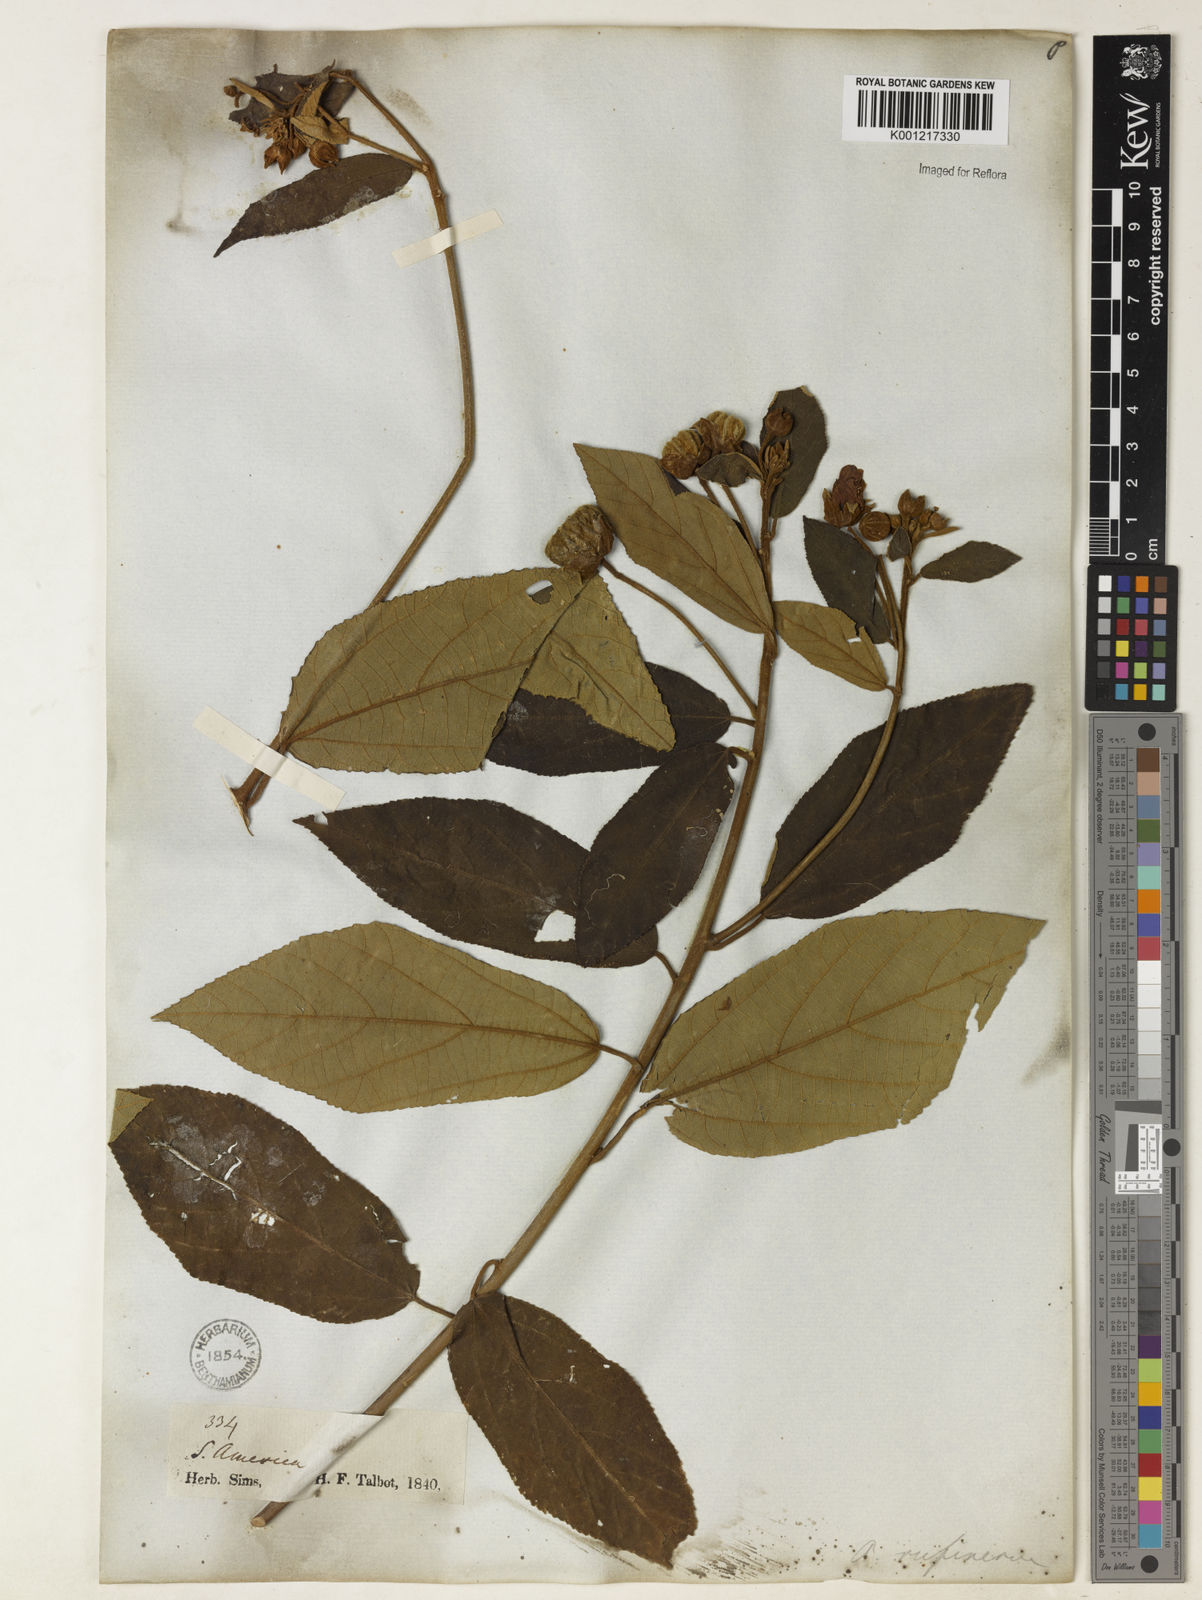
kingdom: Plantae
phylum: Tracheophyta
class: Magnoliopsida
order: Malvales
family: Malvaceae
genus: Callianthe
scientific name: Callianthe rufinerva
